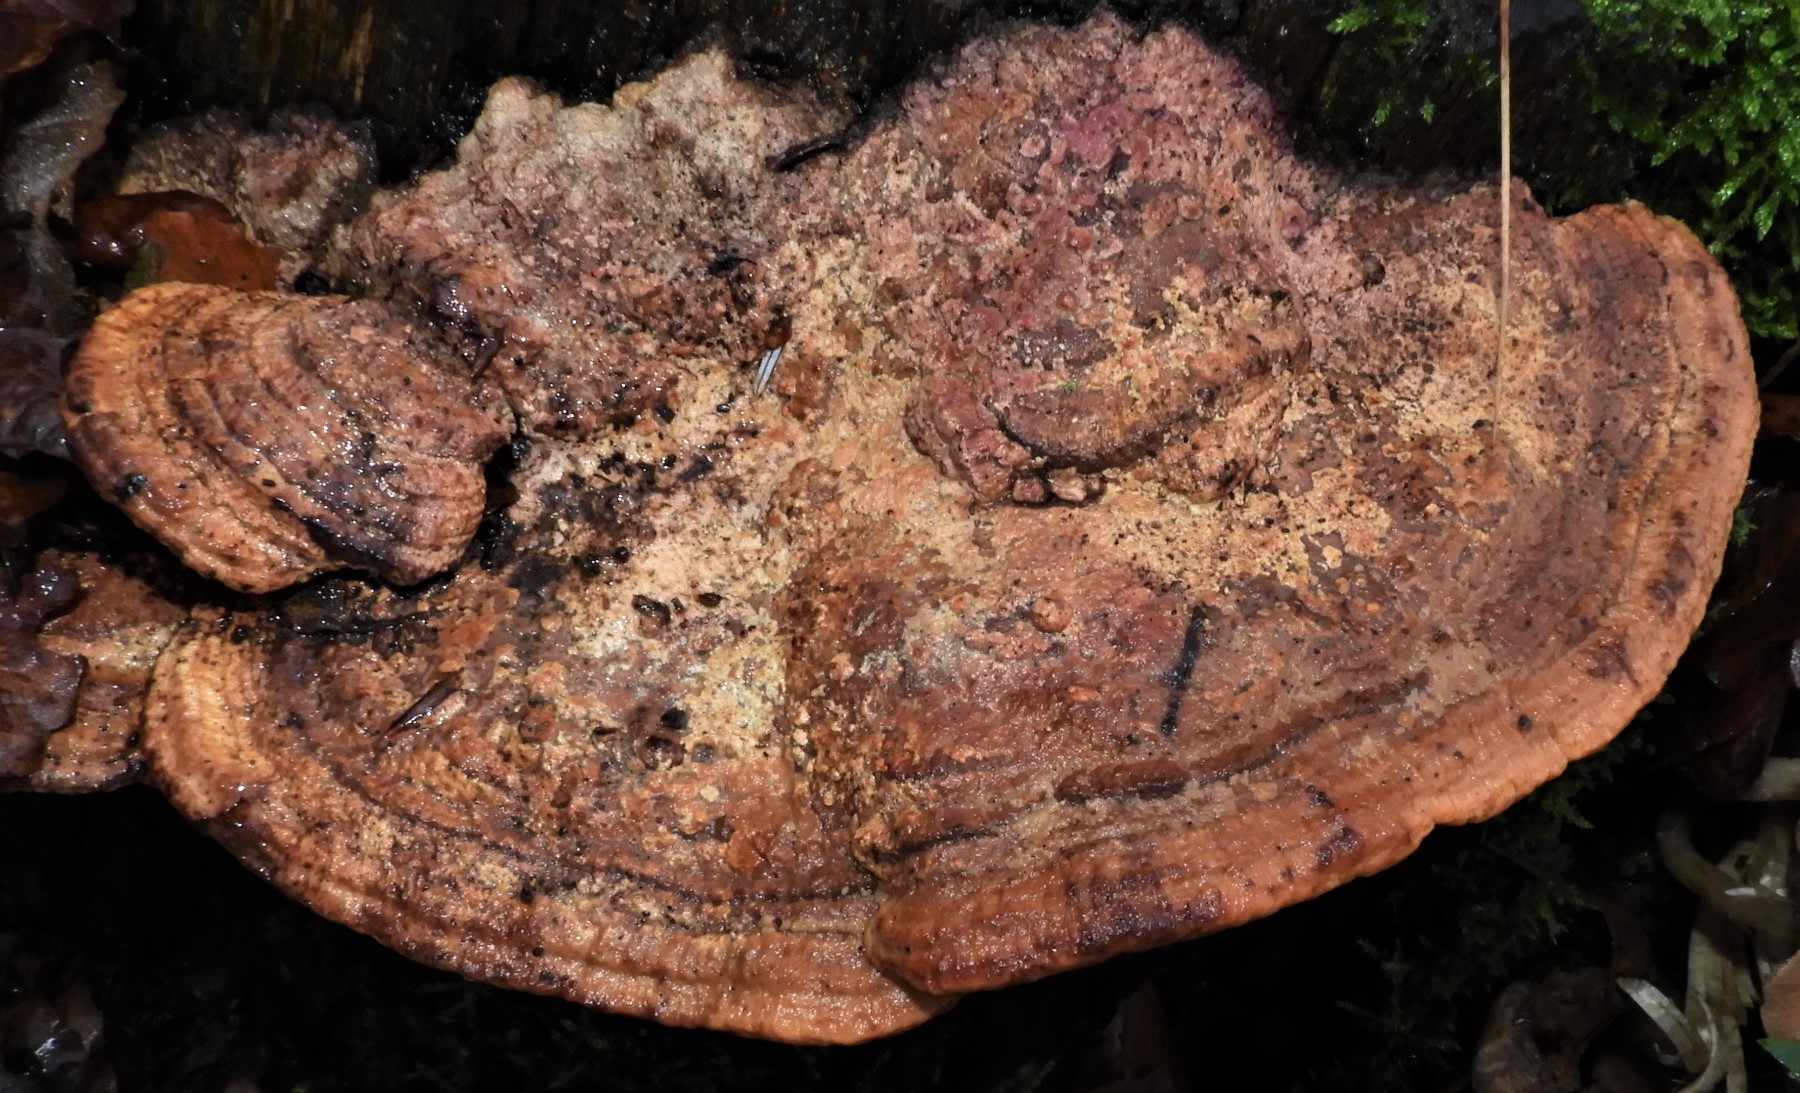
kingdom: Fungi
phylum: Basidiomycota
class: Agaricomycetes
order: Polyporales
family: Fomitopsidaceae
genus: Daedalea
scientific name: Daedalea quercina
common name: ege-labyrintsvamp
